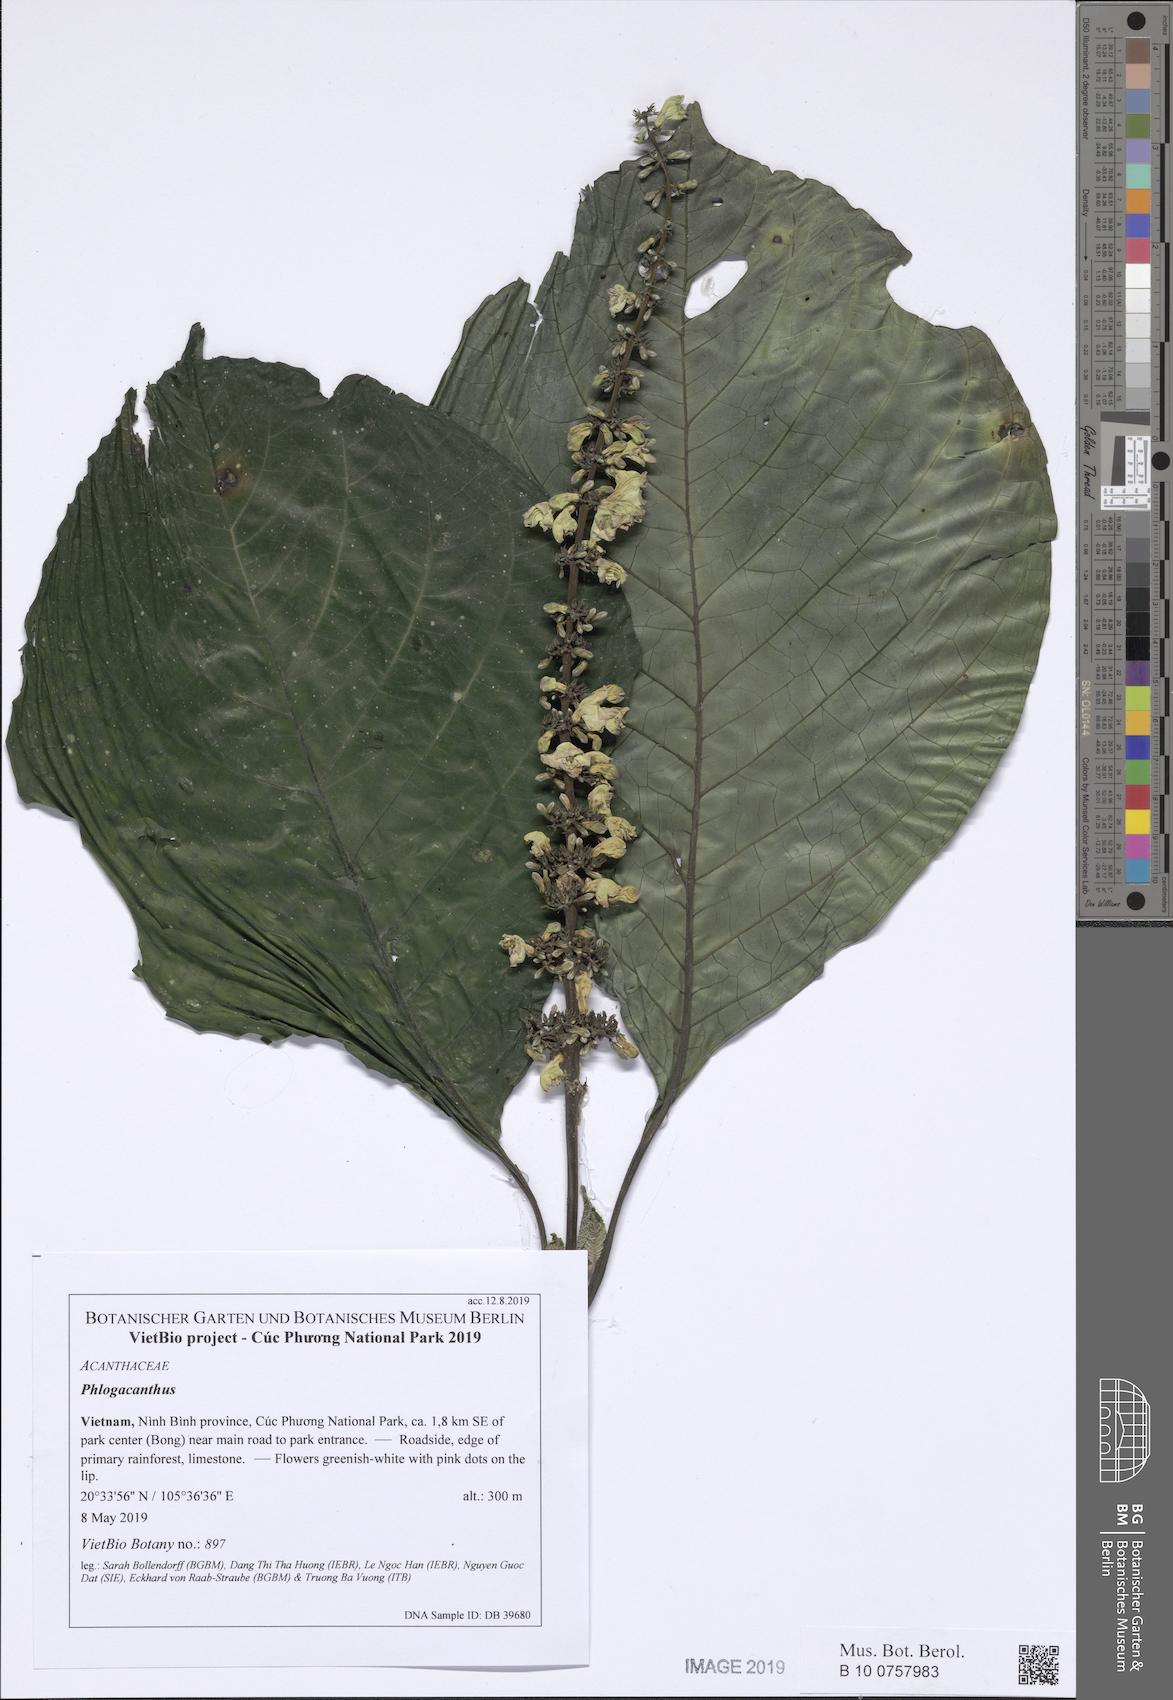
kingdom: Plantae
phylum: Tracheophyta
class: Magnoliopsida
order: Lamiales
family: Acanthaceae
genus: Phlogacanthus
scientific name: Phlogacanthus pyramidalis
